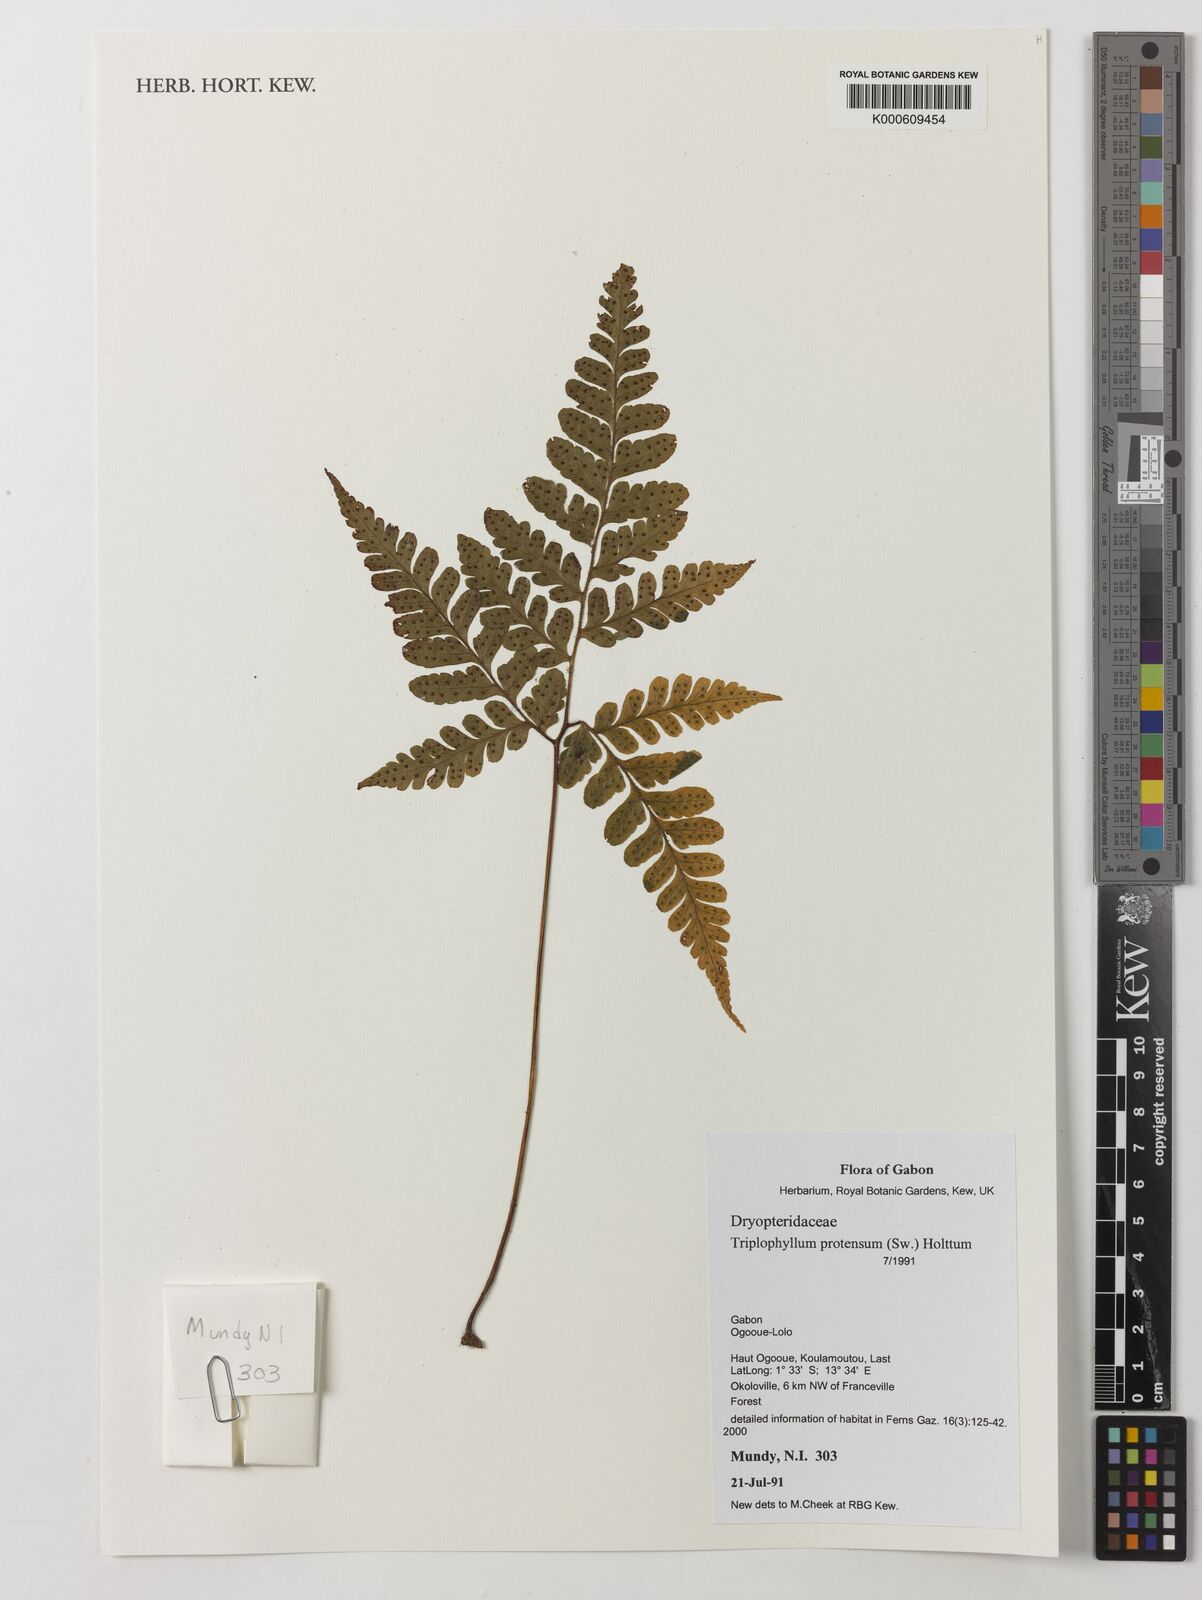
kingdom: Plantae
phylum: Tracheophyta
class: Polypodiopsida
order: Polypodiales
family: Tectariaceae
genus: Triplophyllum
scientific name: Triplophyllum protensum
